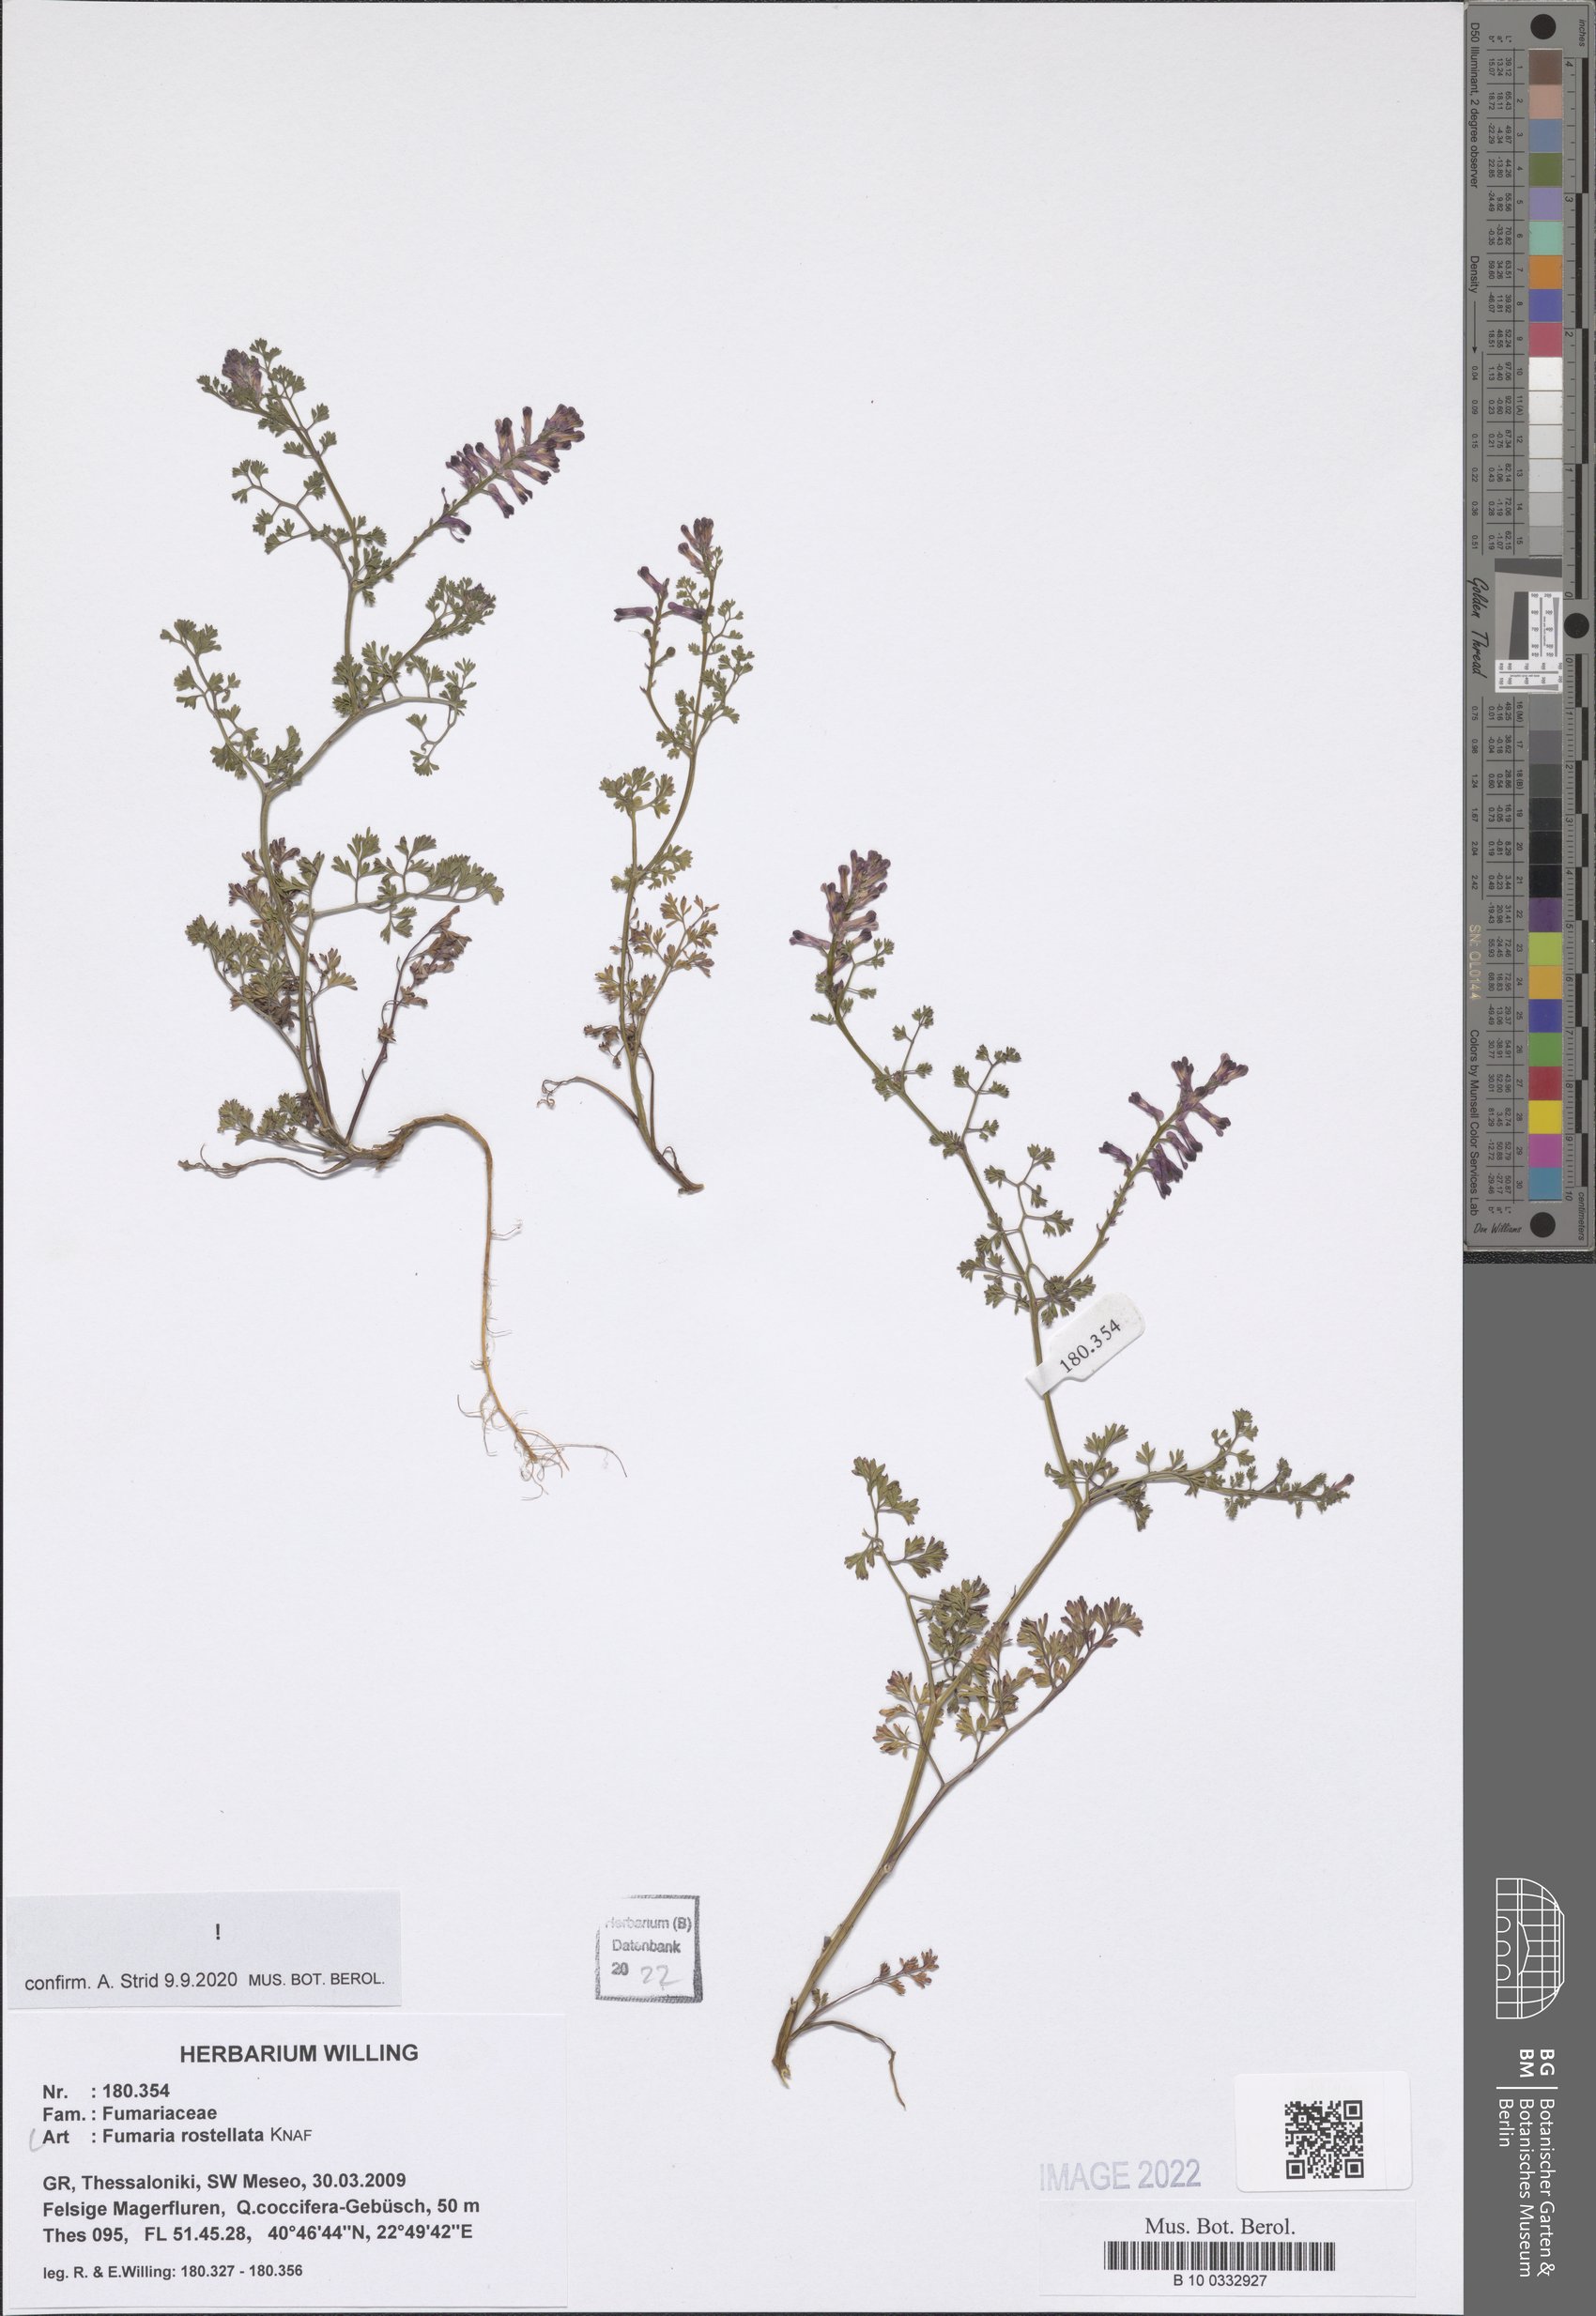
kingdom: Plantae
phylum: Tracheophyta
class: Magnoliopsida
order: Ranunculales
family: Papaveraceae
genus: Fumaria
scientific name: Fumaria rostellata
